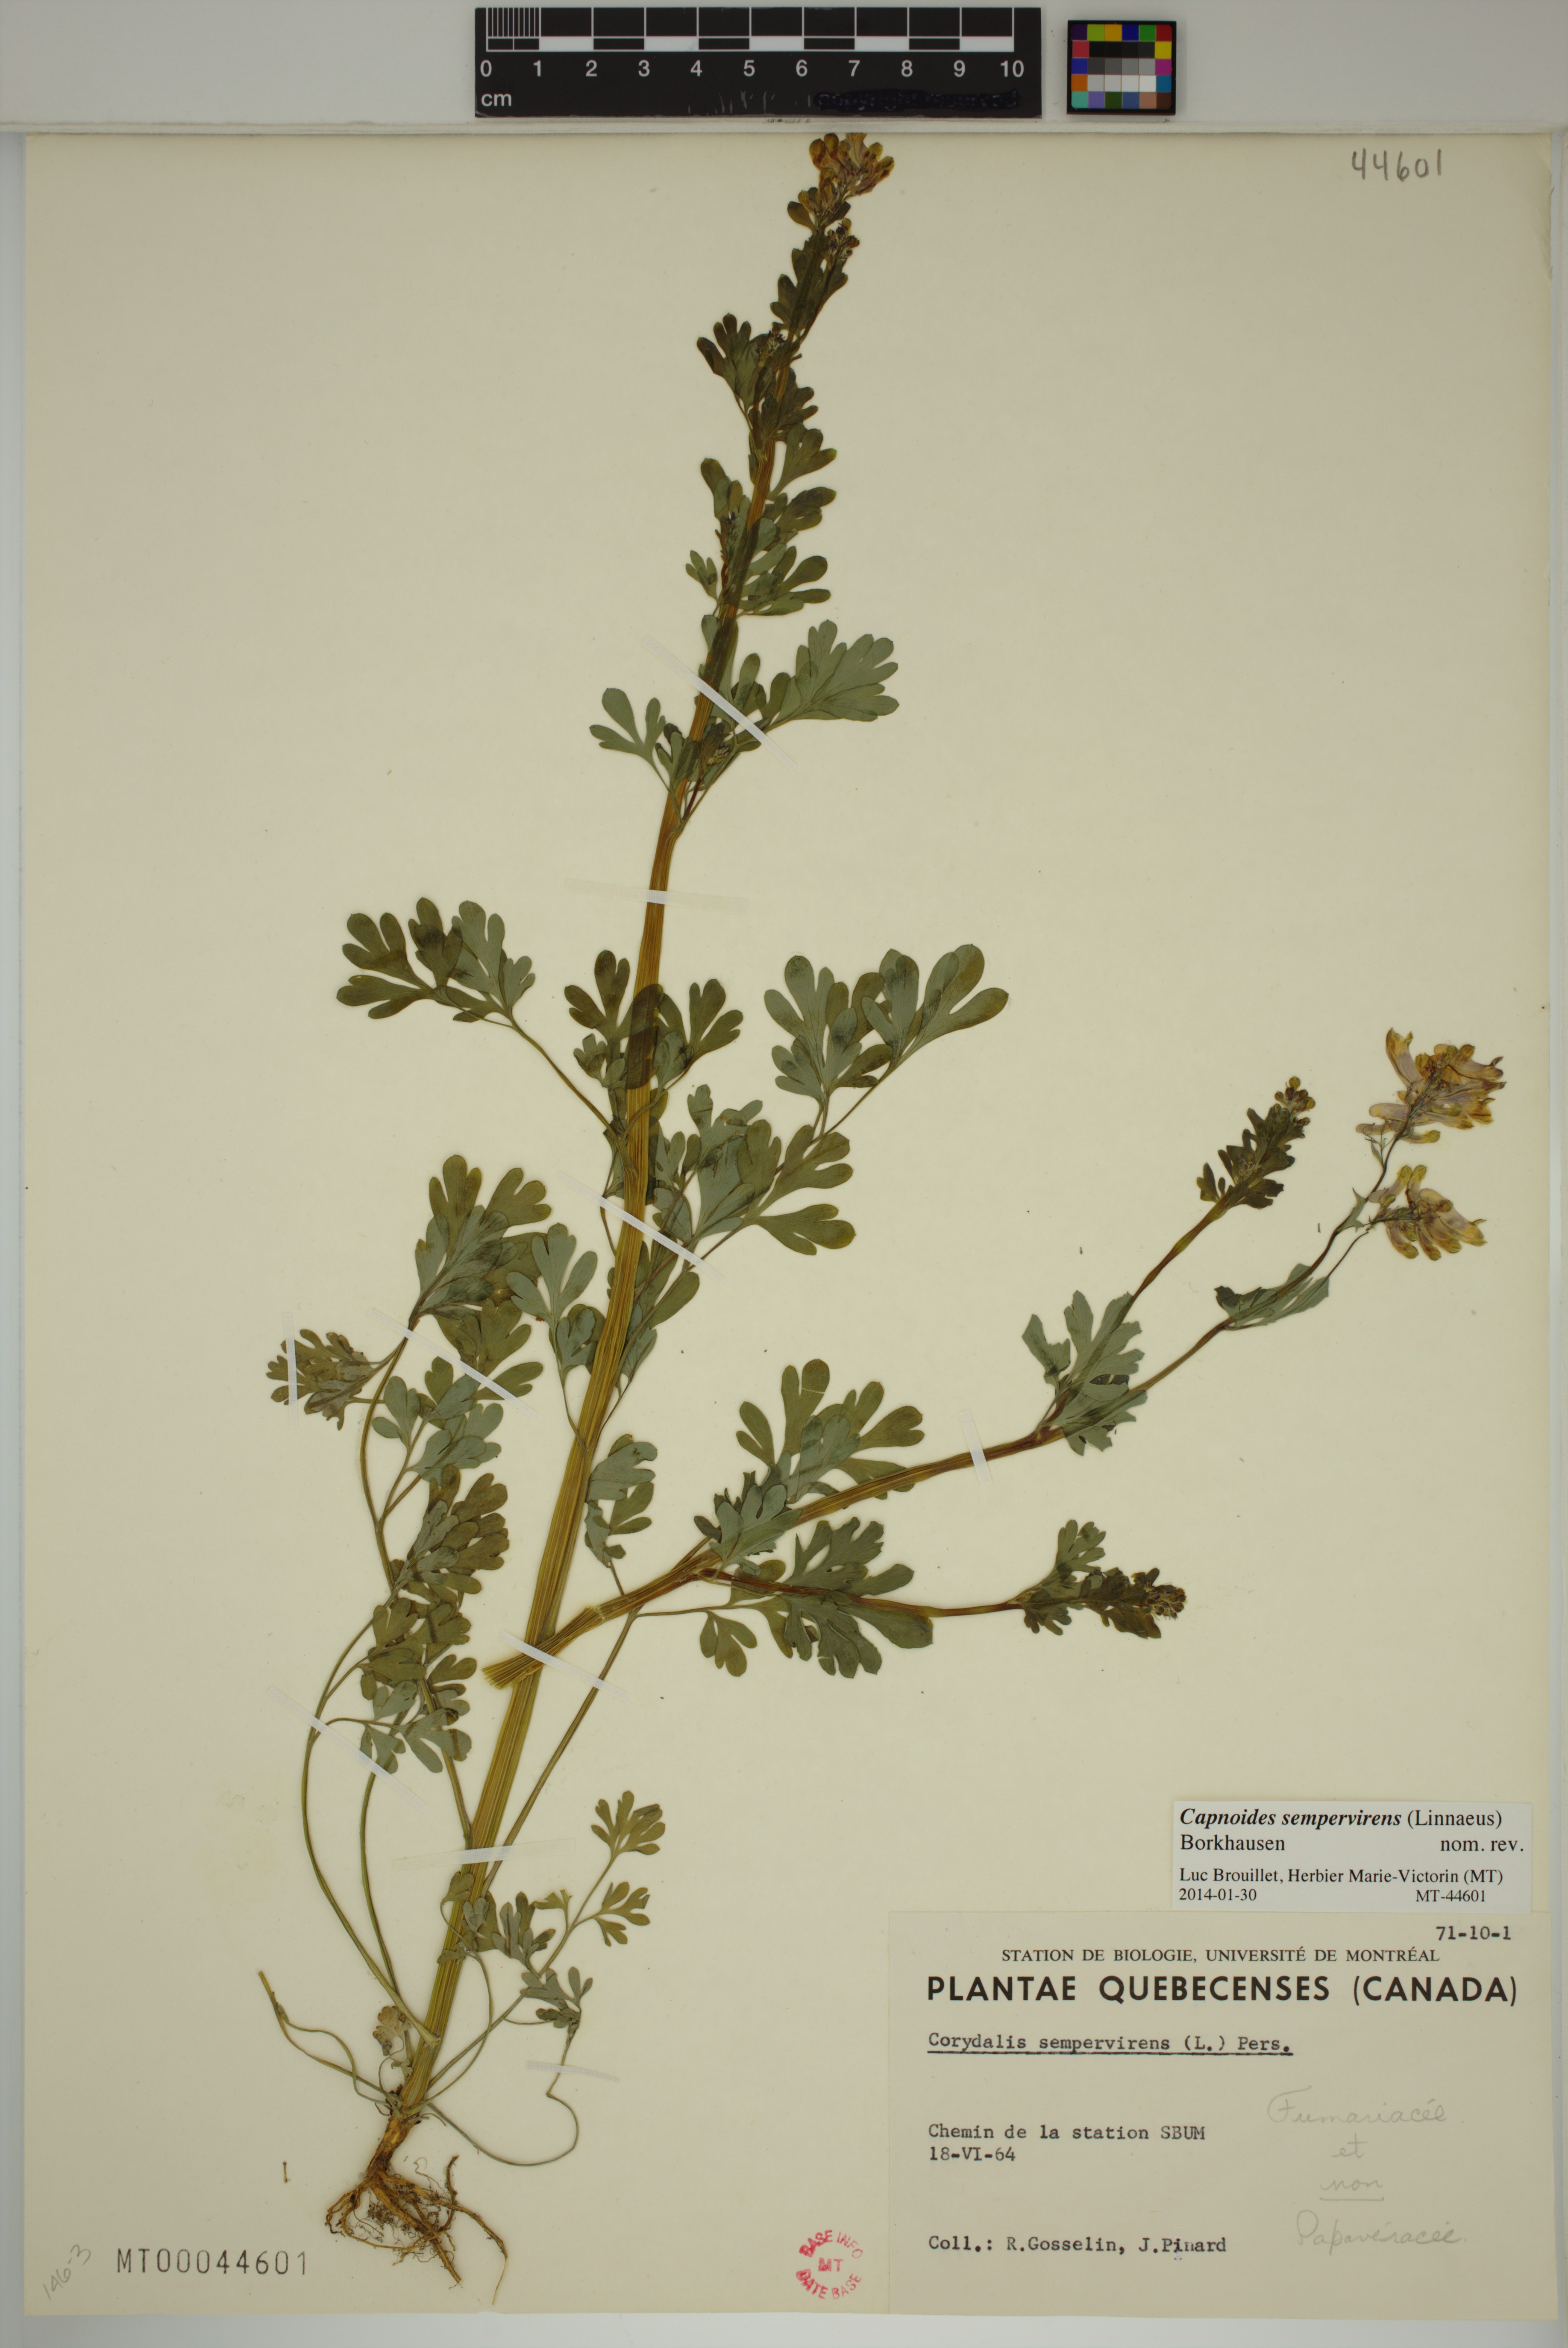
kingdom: Plantae
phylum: Tracheophyta
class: Magnoliopsida
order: Ranunculales
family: Papaveraceae
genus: Capnoides
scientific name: Capnoides sempervirens
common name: Rock harlequin
